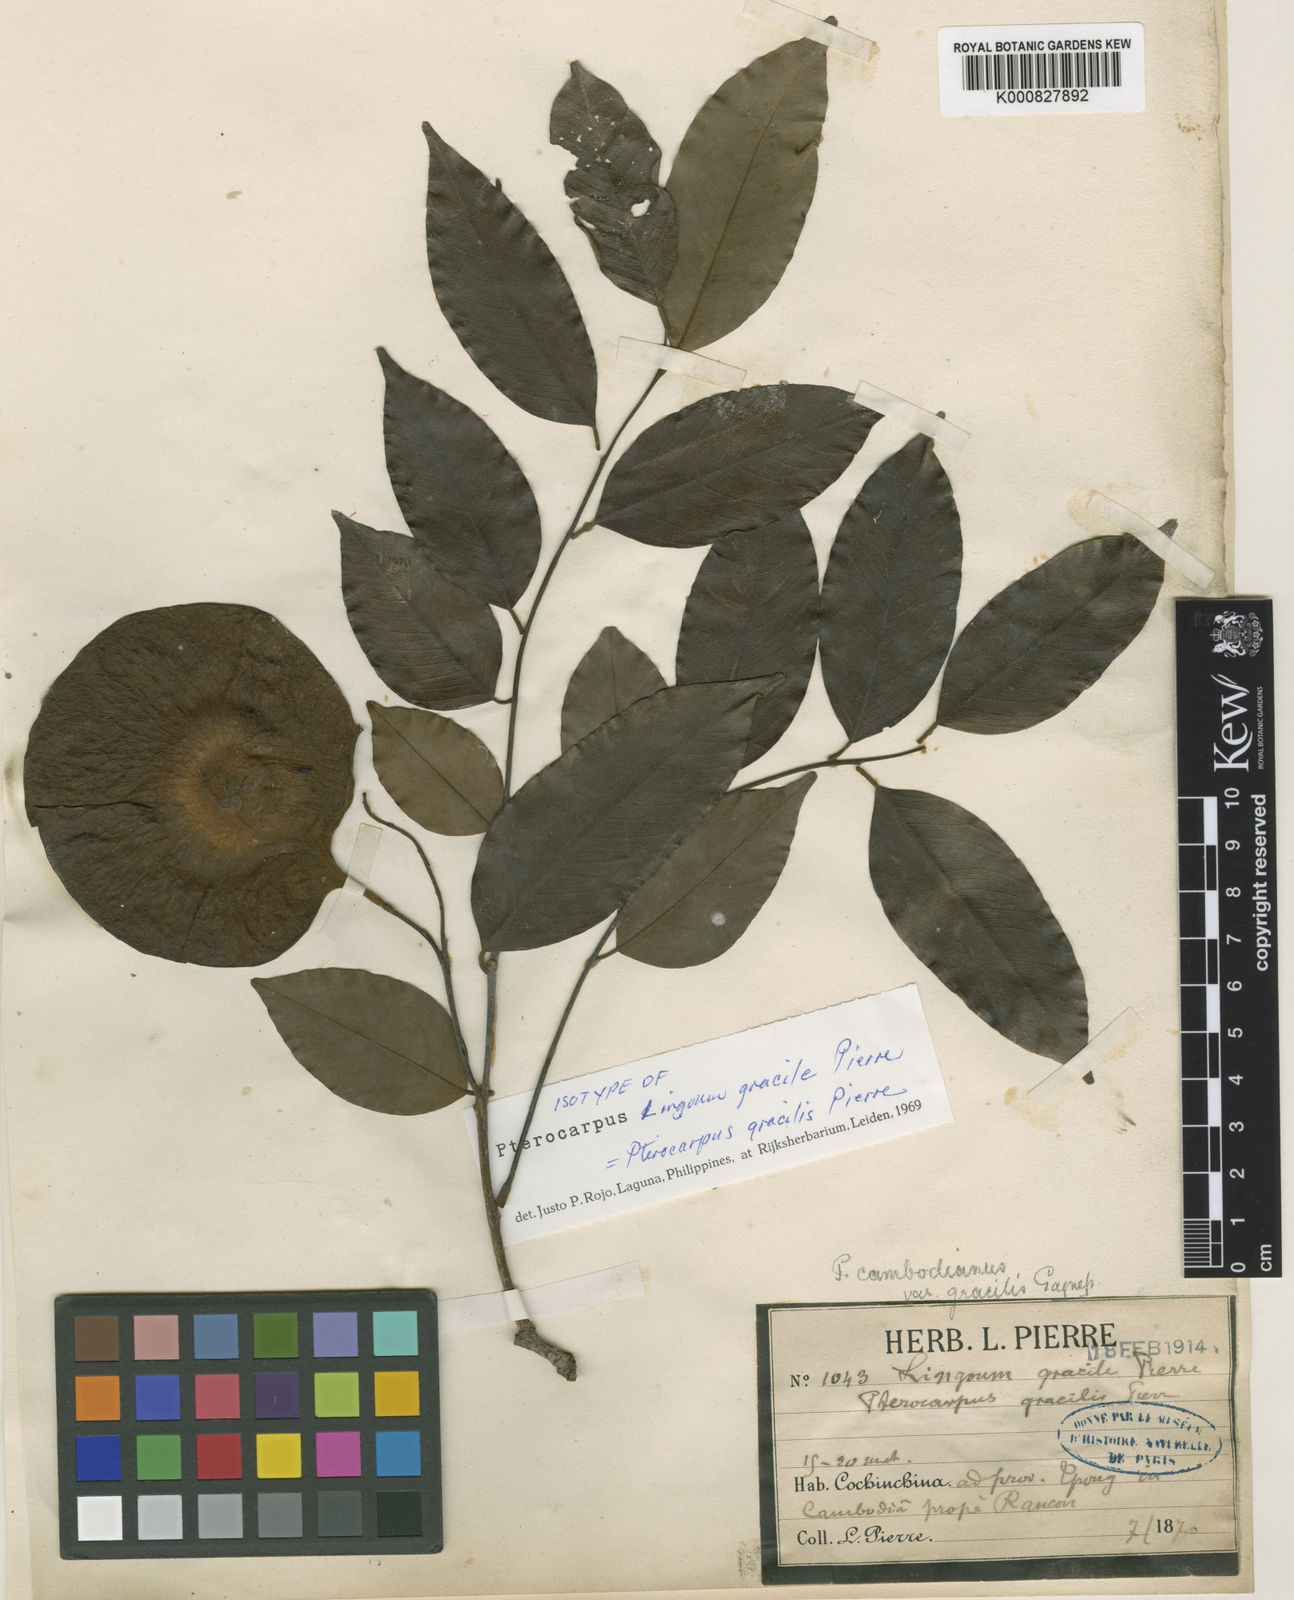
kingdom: Plantae
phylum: Tracheophyta
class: Magnoliopsida
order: Fabales
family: Fabaceae
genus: Pterocarpus
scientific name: Pterocarpus
